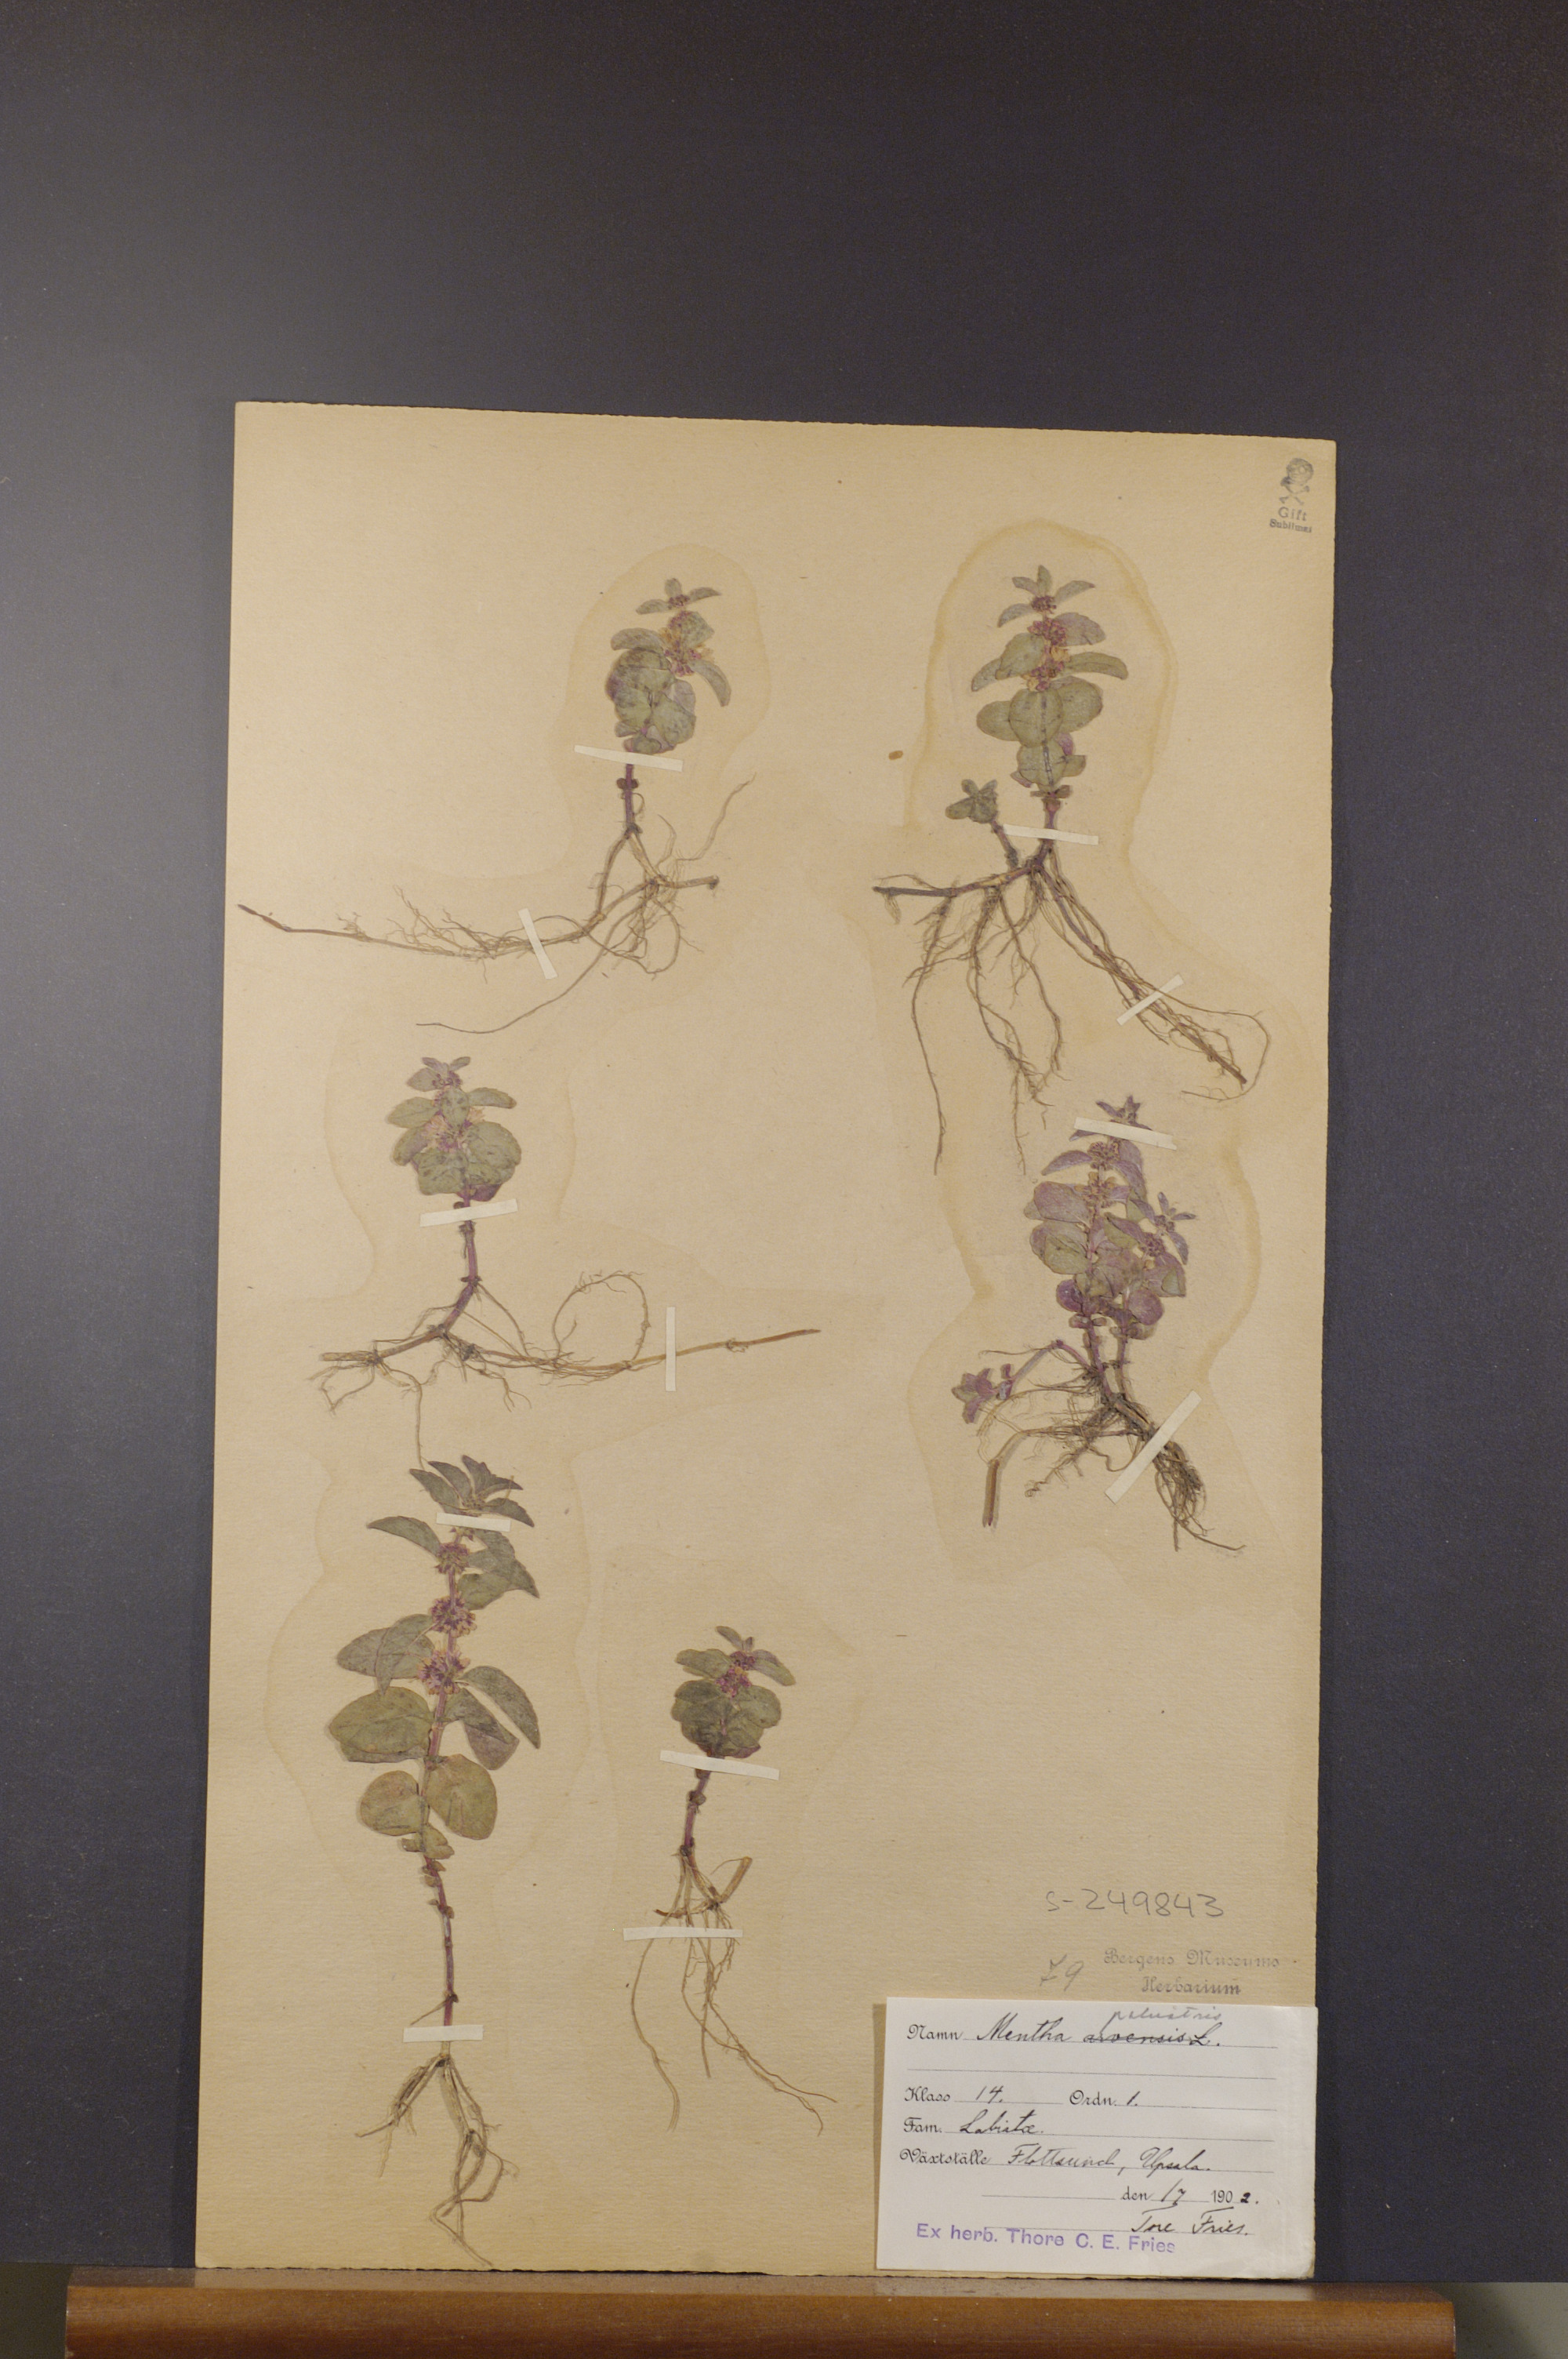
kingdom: Plantae
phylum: Tracheophyta
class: Magnoliopsida
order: Lamiales
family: Lamiaceae
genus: Mentha
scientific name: Mentha arvensis
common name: Corn mint
